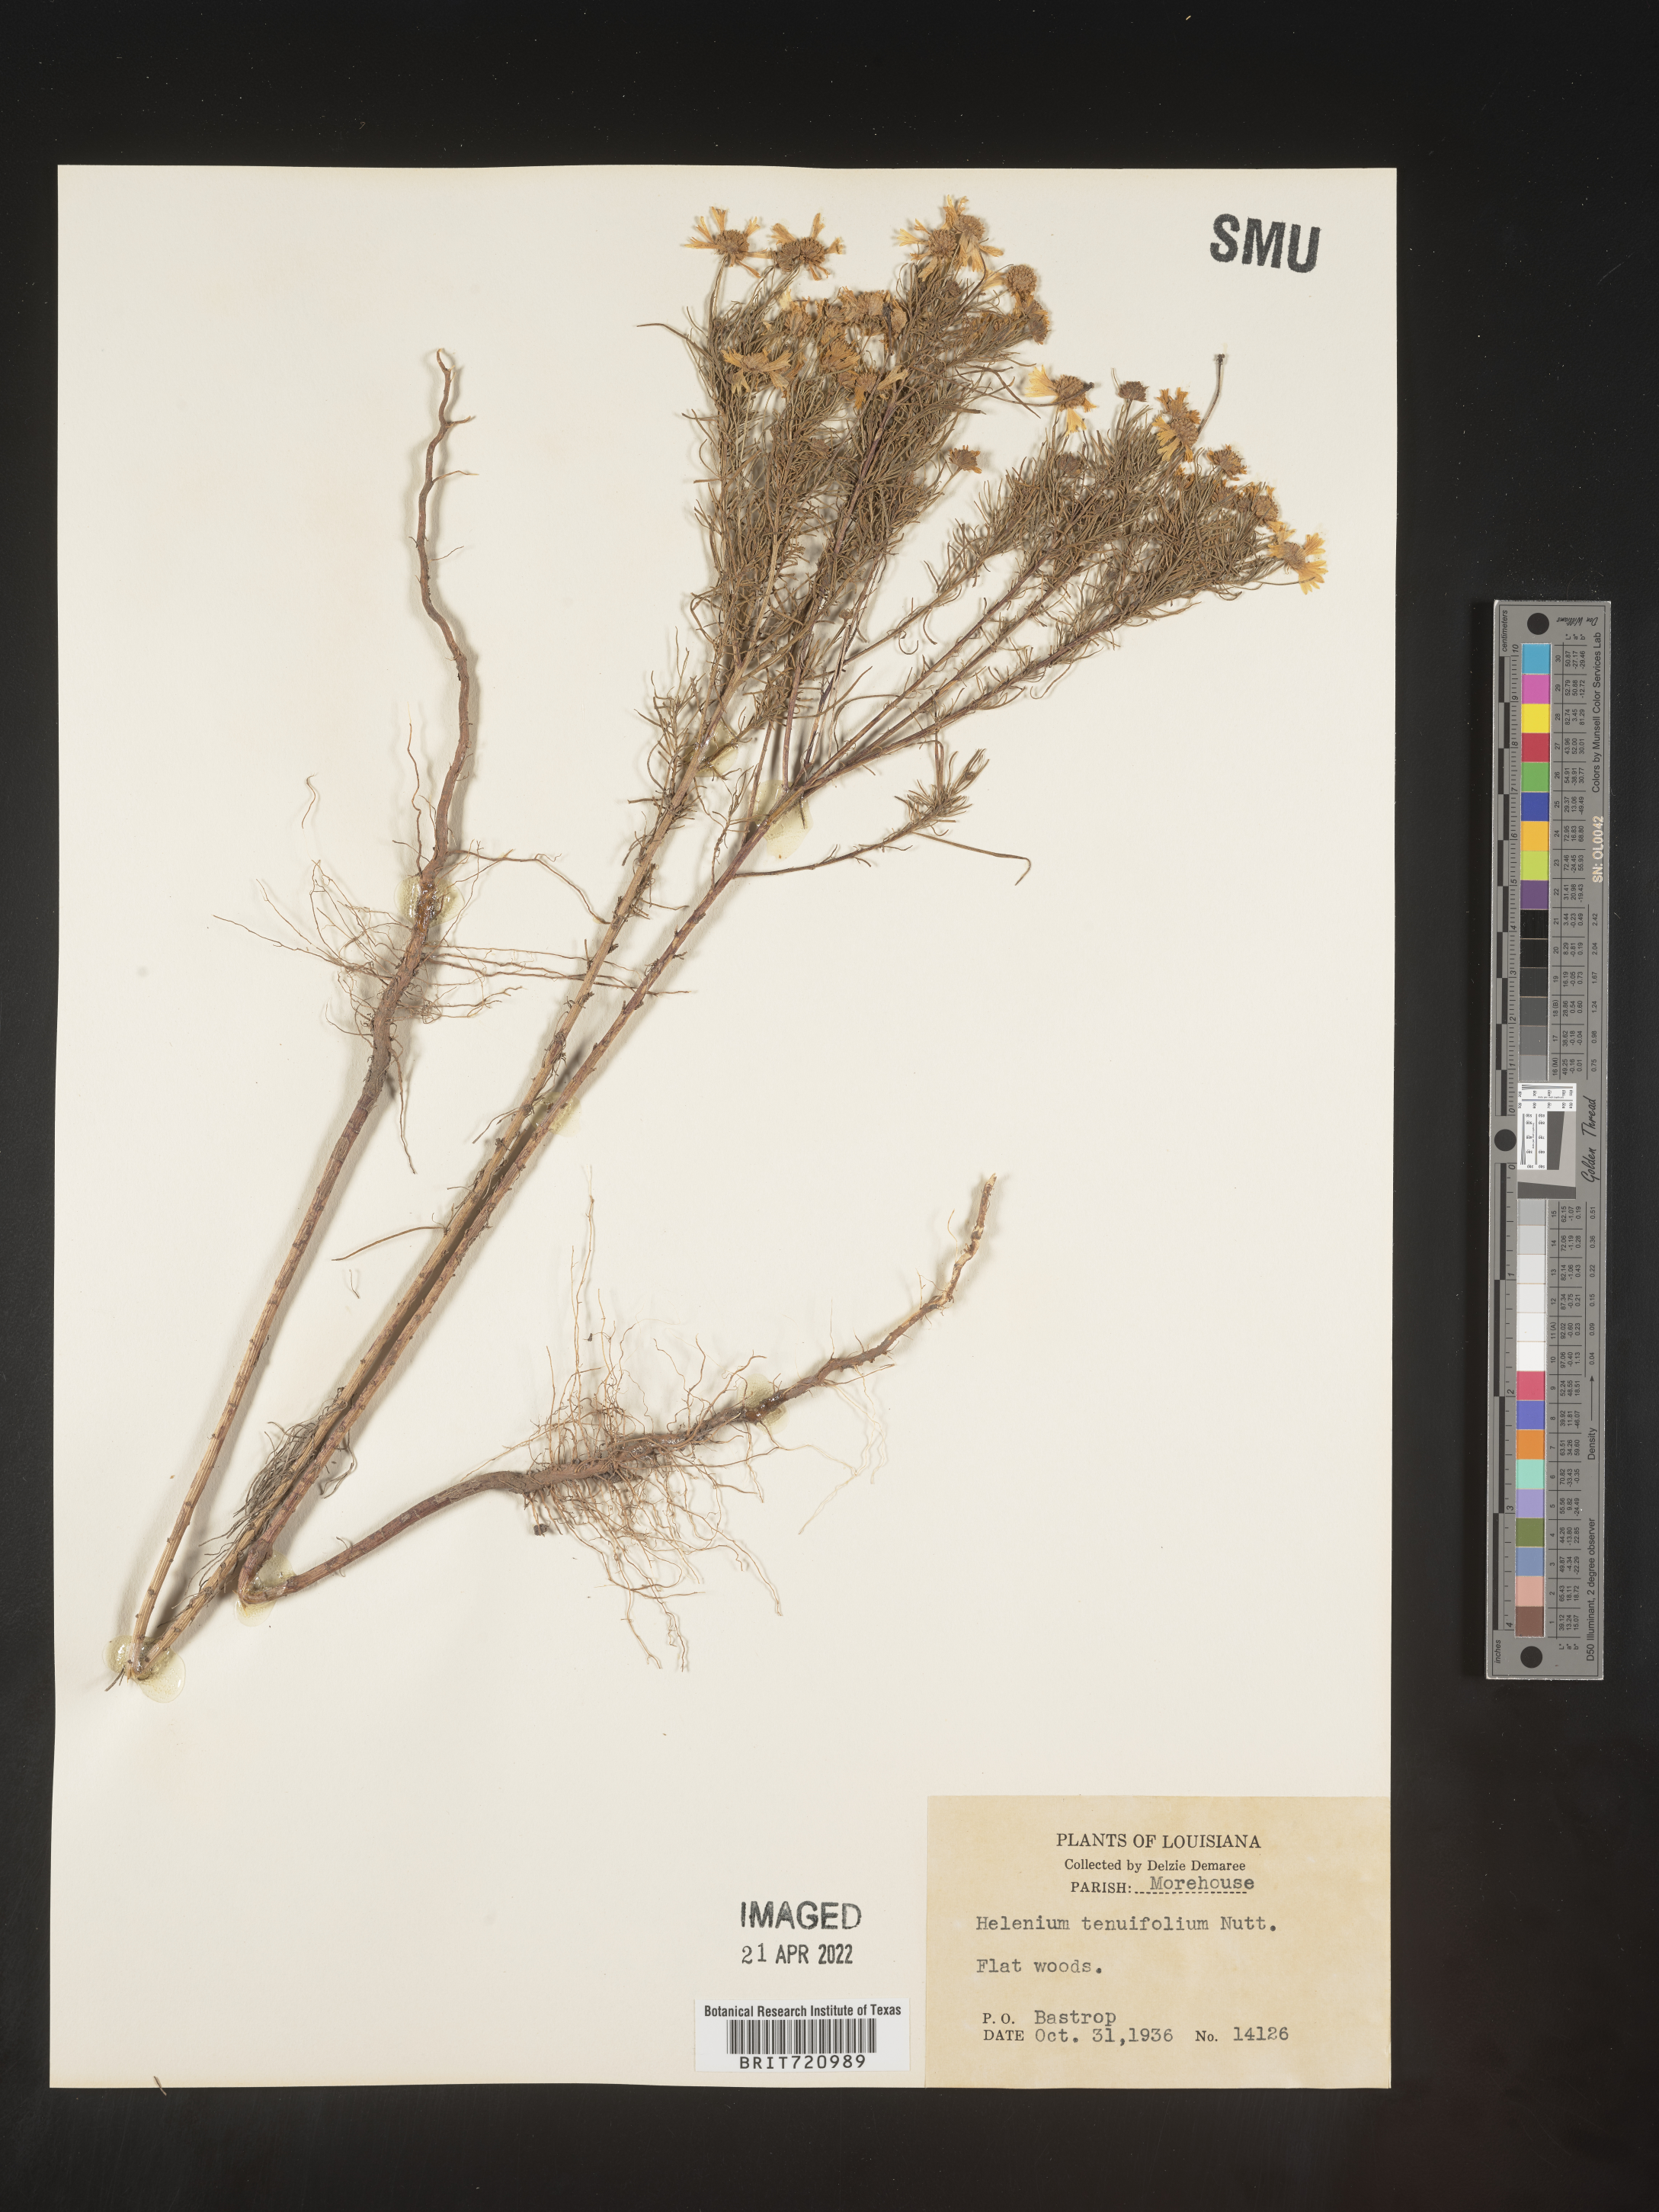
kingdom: Plantae
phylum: Tracheophyta
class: Magnoliopsida
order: Asterales
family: Asteraceae
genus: Helenium
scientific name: Helenium amarum
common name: Bitter sneezeweed
